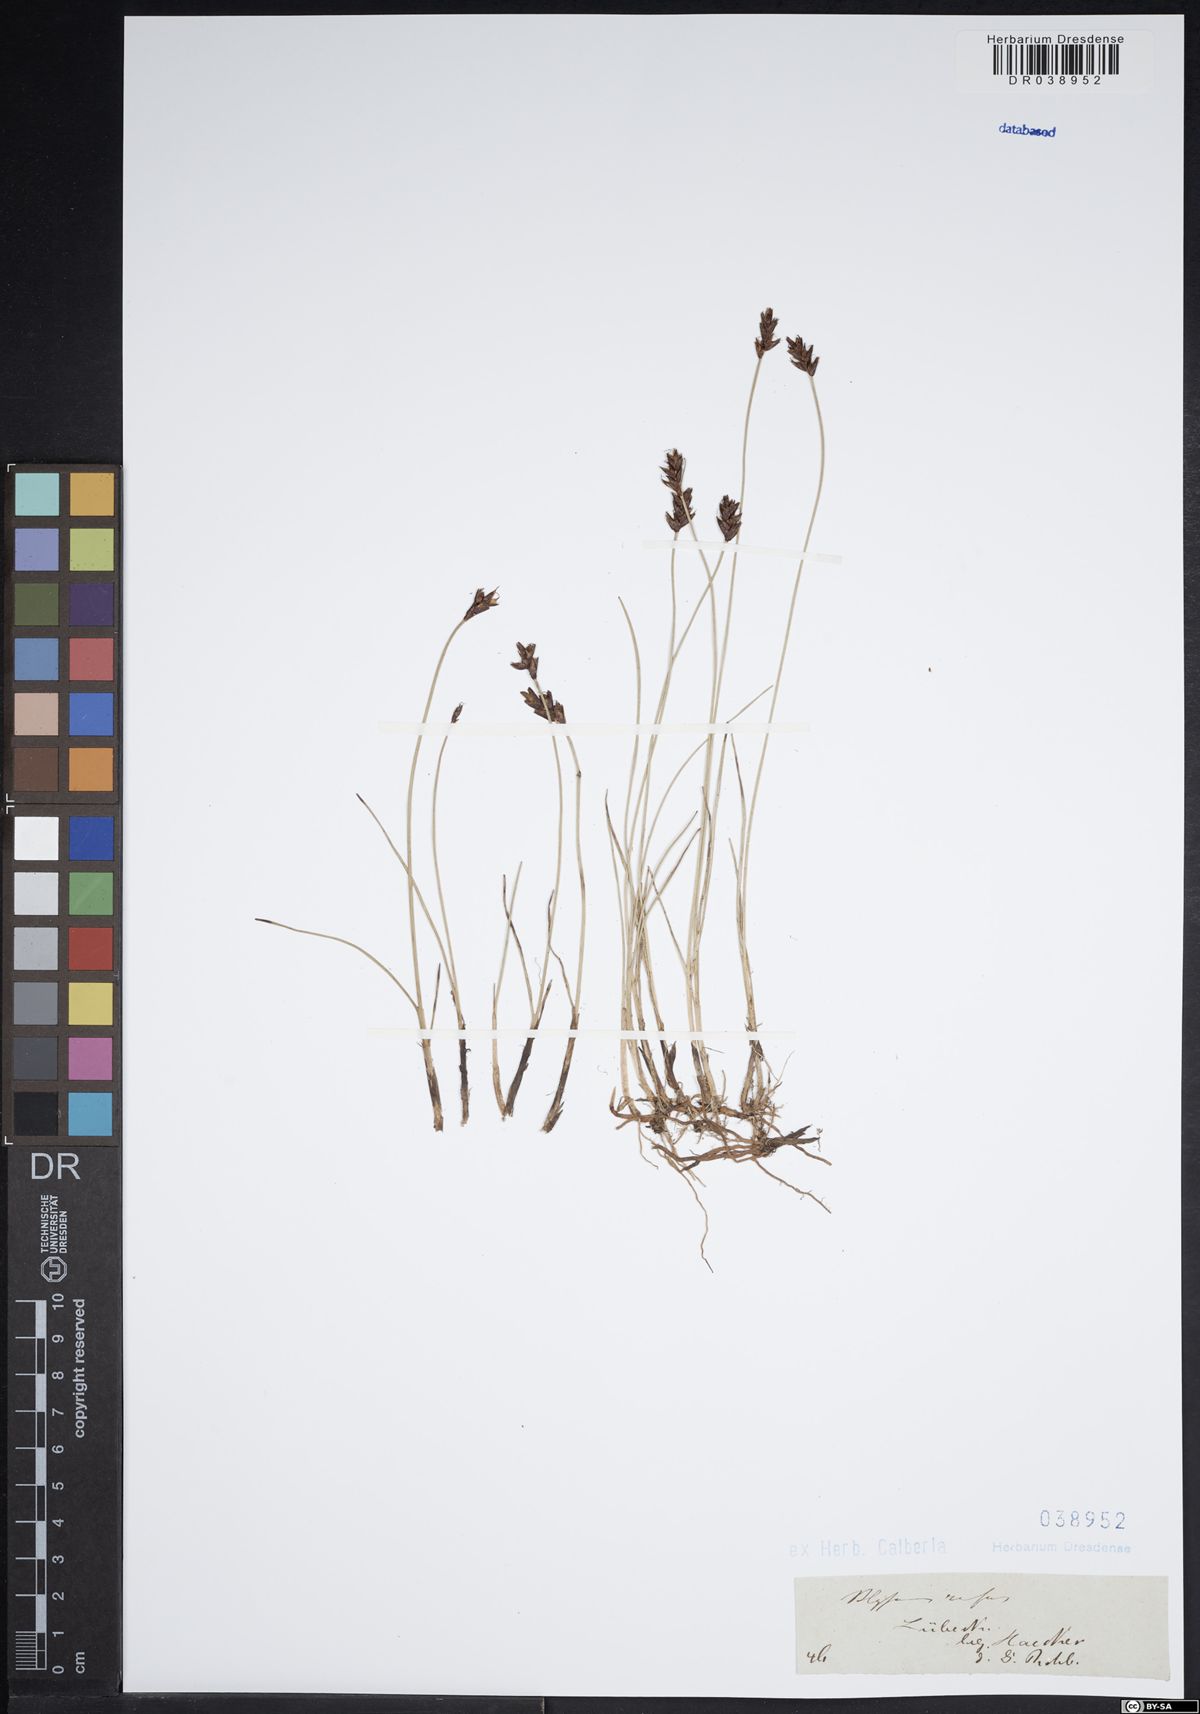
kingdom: Plantae
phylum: Tracheophyta
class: Liliopsida
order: Poales
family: Cyperaceae
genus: Blysmus
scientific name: Blysmus rufus
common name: Saltmarsh flat-sedge
